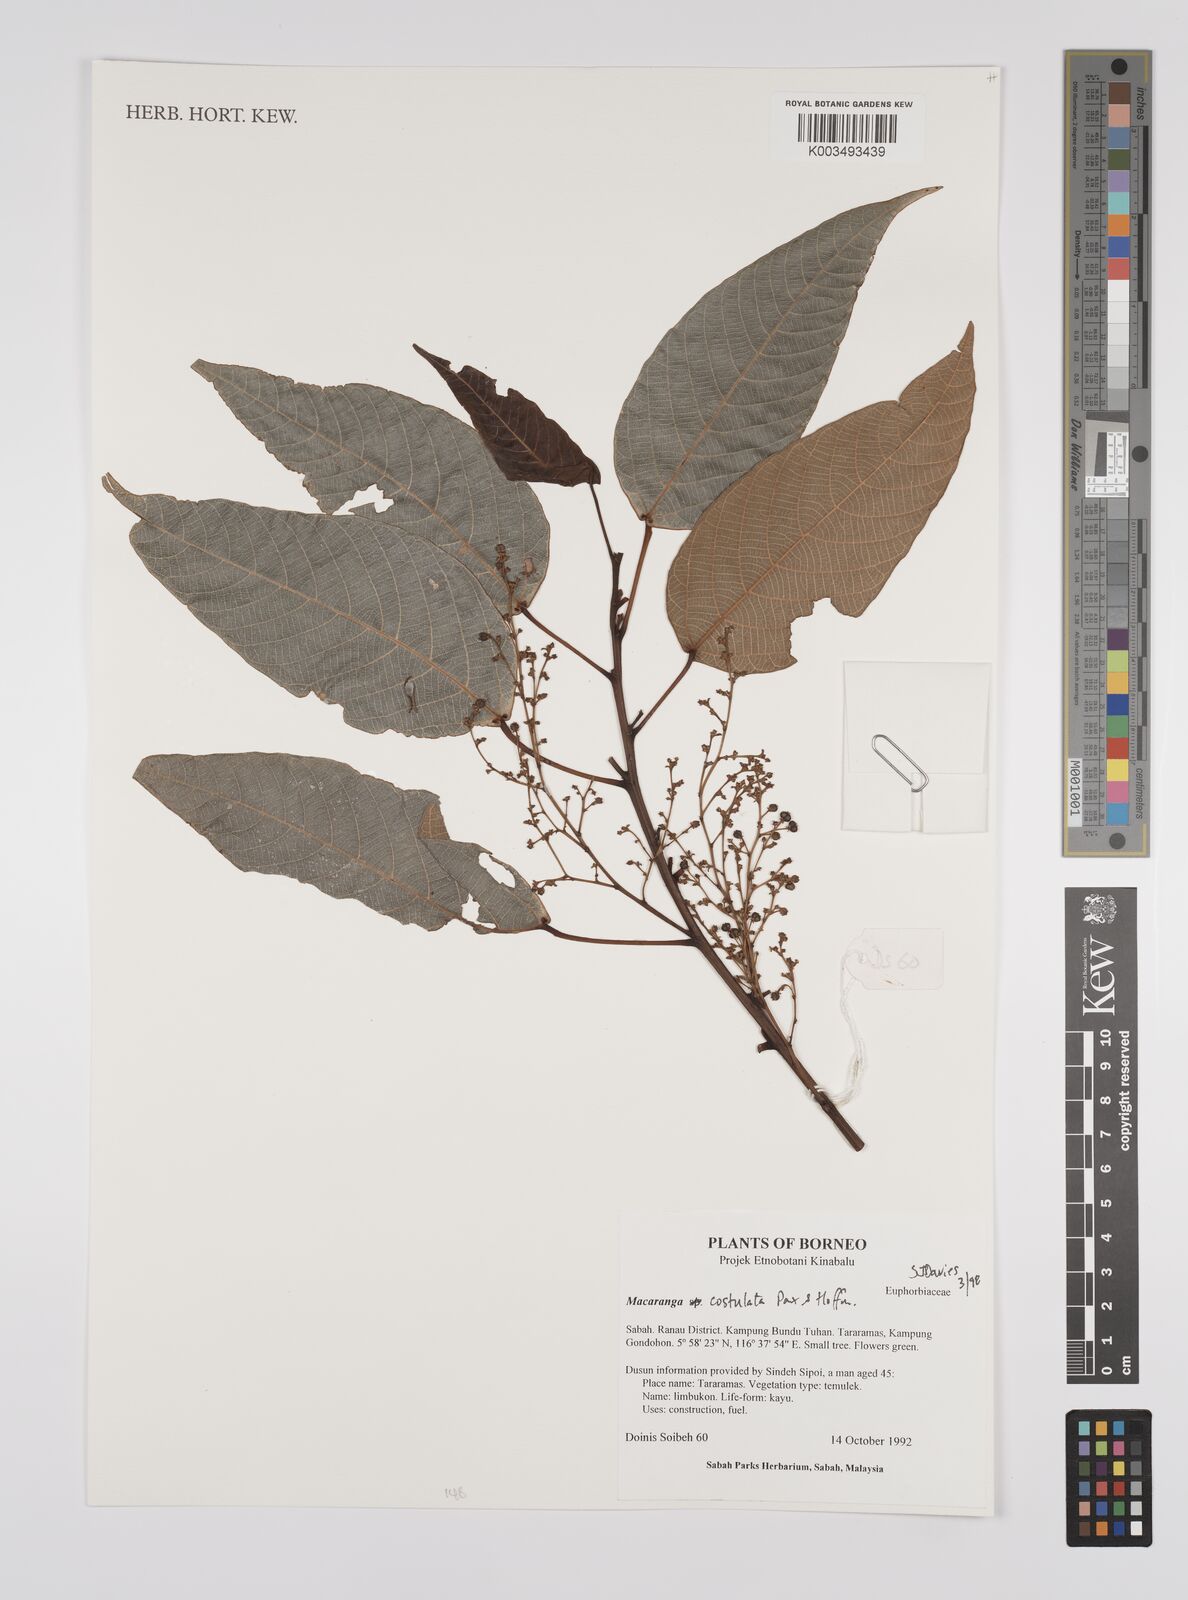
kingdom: Plantae
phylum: Tracheophyta
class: Magnoliopsida
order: Malpighiales
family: Euphorbiaceae
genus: Macaranga
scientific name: Macaranga costulata
